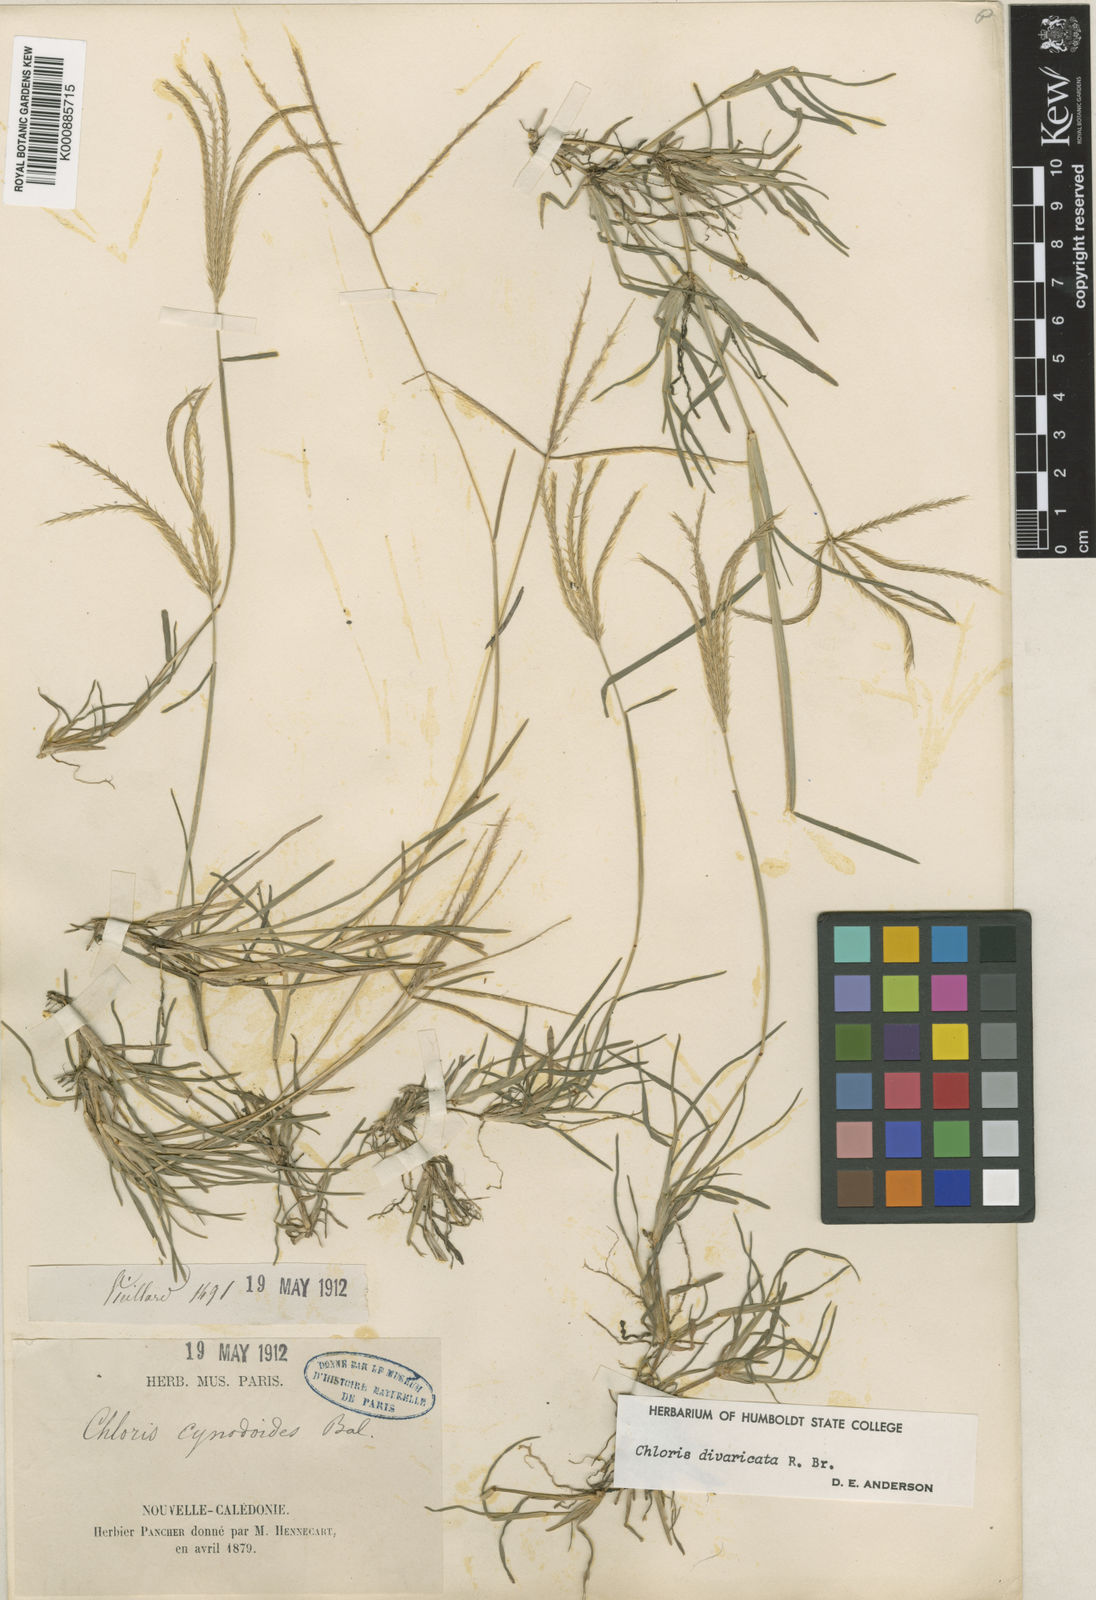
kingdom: Plantae
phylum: Tracheophyta
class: Liliopsida
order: Poales
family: Poaceae
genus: Chloris
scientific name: Chloris divaricata
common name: Spreading windmill grass
